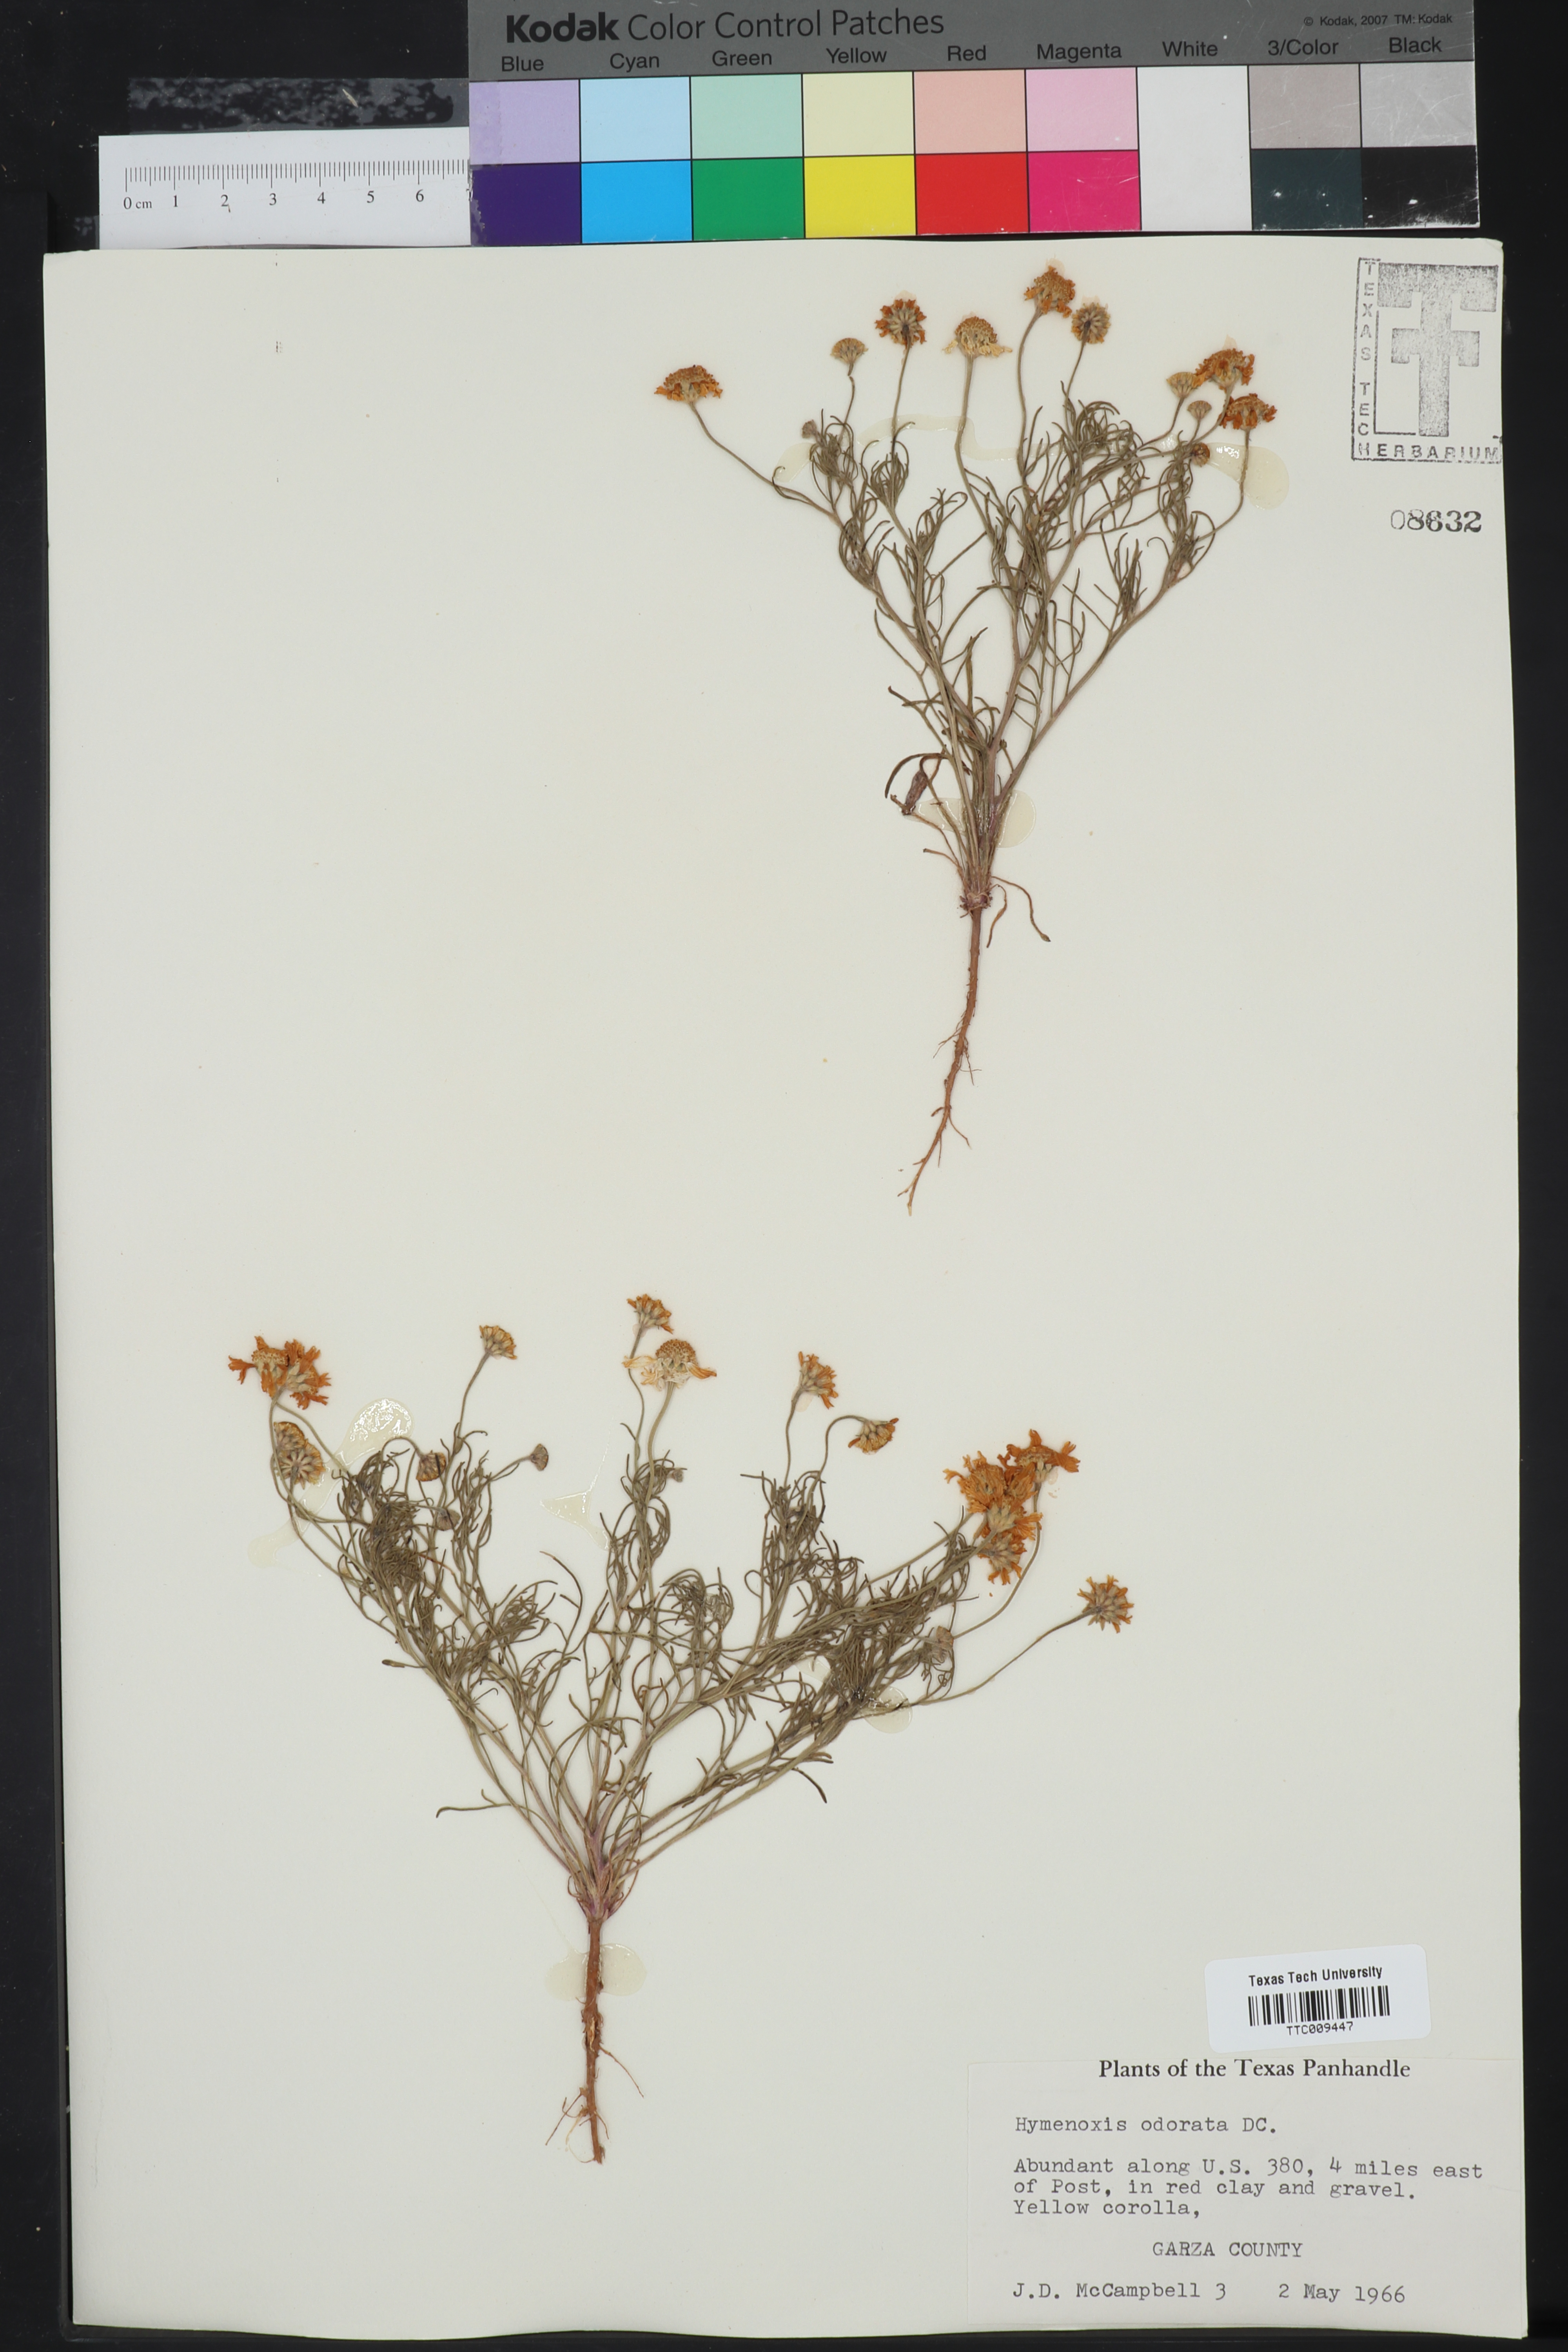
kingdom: Plantae
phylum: Tracheophyta
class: Magnoliopsida
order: Asterales
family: Asteraceae
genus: Hymenoxys
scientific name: Hymenoxys odorata
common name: Bitter rubberweed
